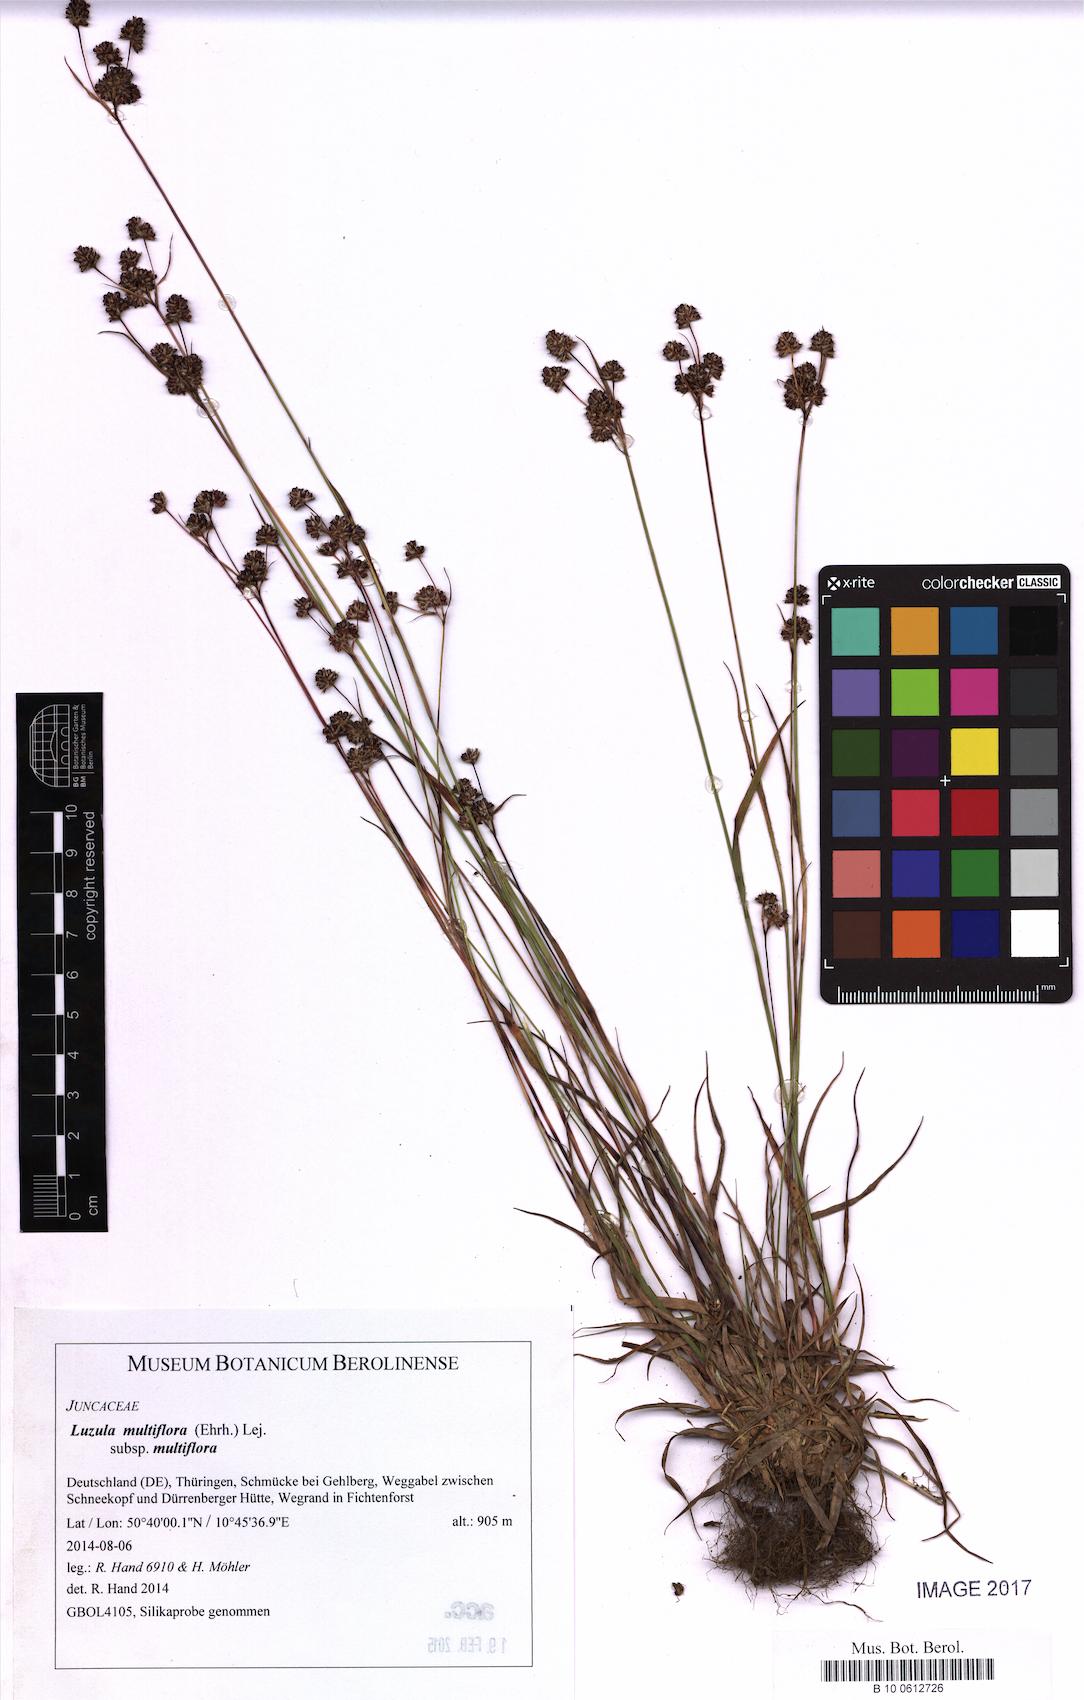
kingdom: Plantae
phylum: Tracheophyta
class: Liliopsida
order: Poales
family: Juncaceae
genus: Luzula
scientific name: Luzula multiflora
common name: Heath wood-rush
